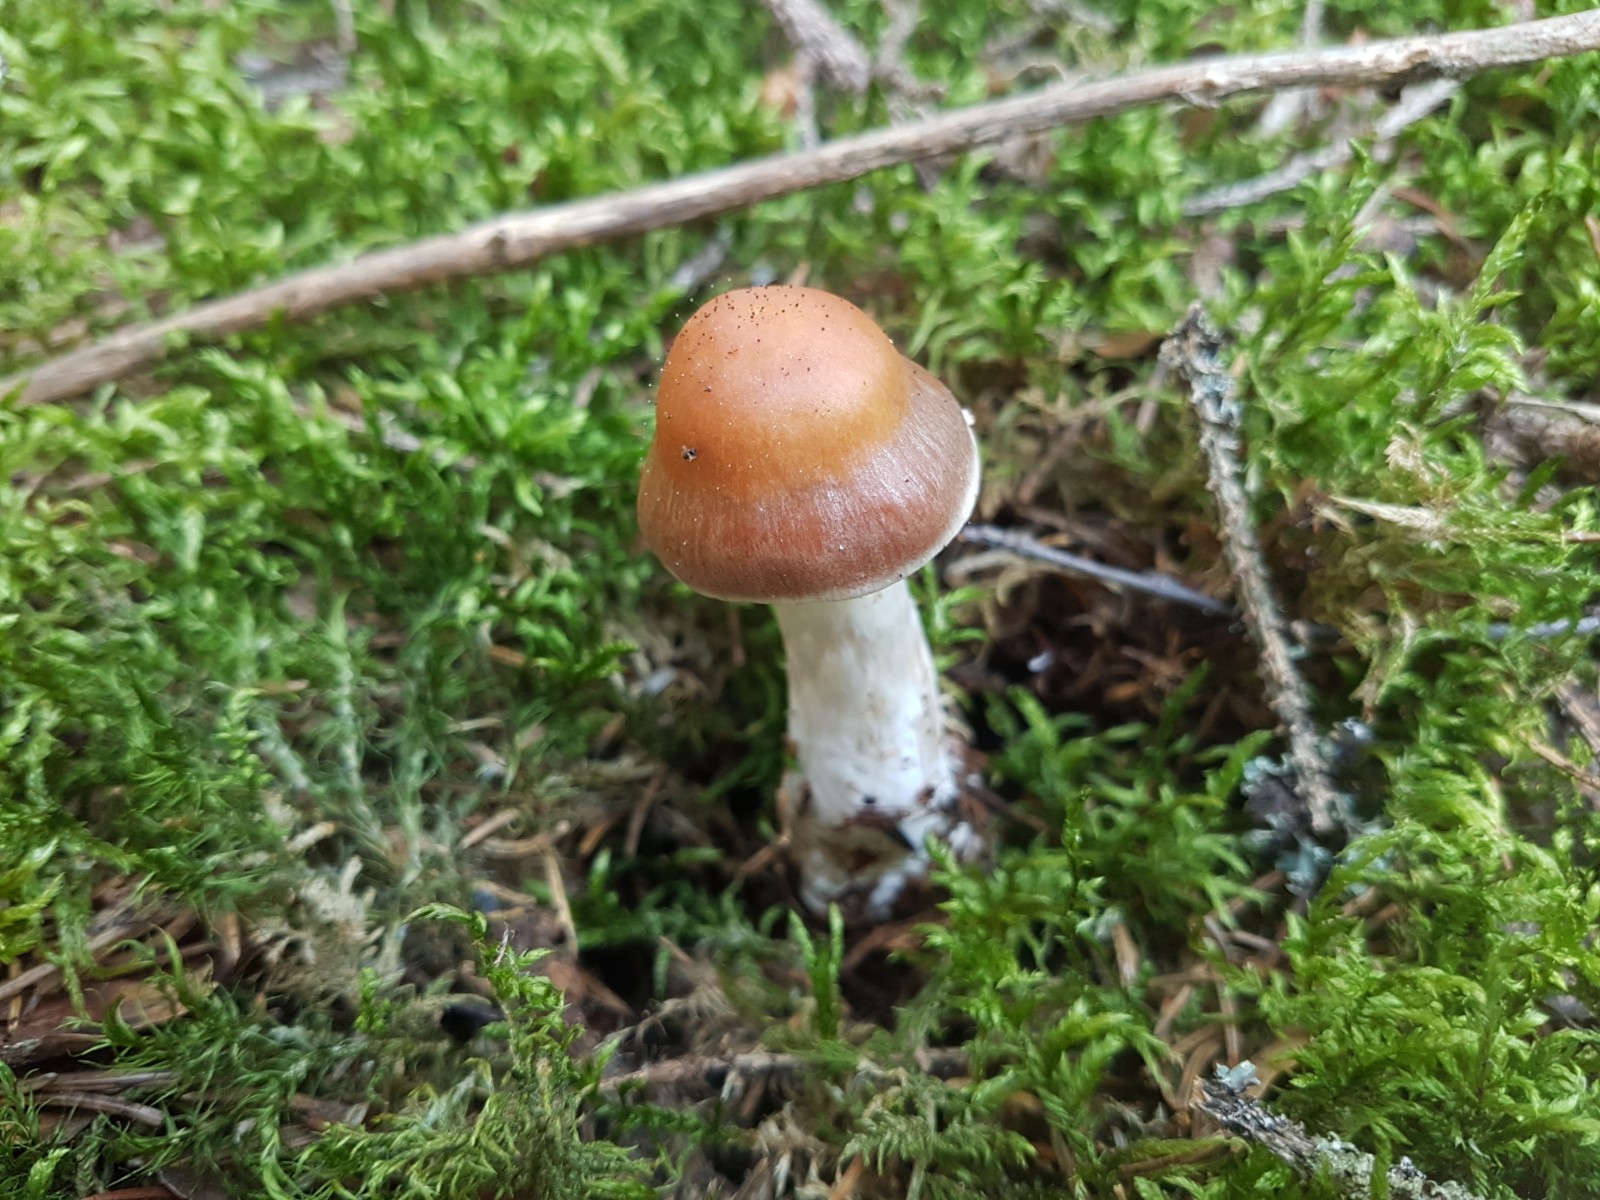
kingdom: Fungi
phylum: Basidiomycota
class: Agaricomycetes
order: Agaricales
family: Cortinariaceae
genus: Cortinarius
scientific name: Cortinarius armeniacus
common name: abrikos-slørhat
